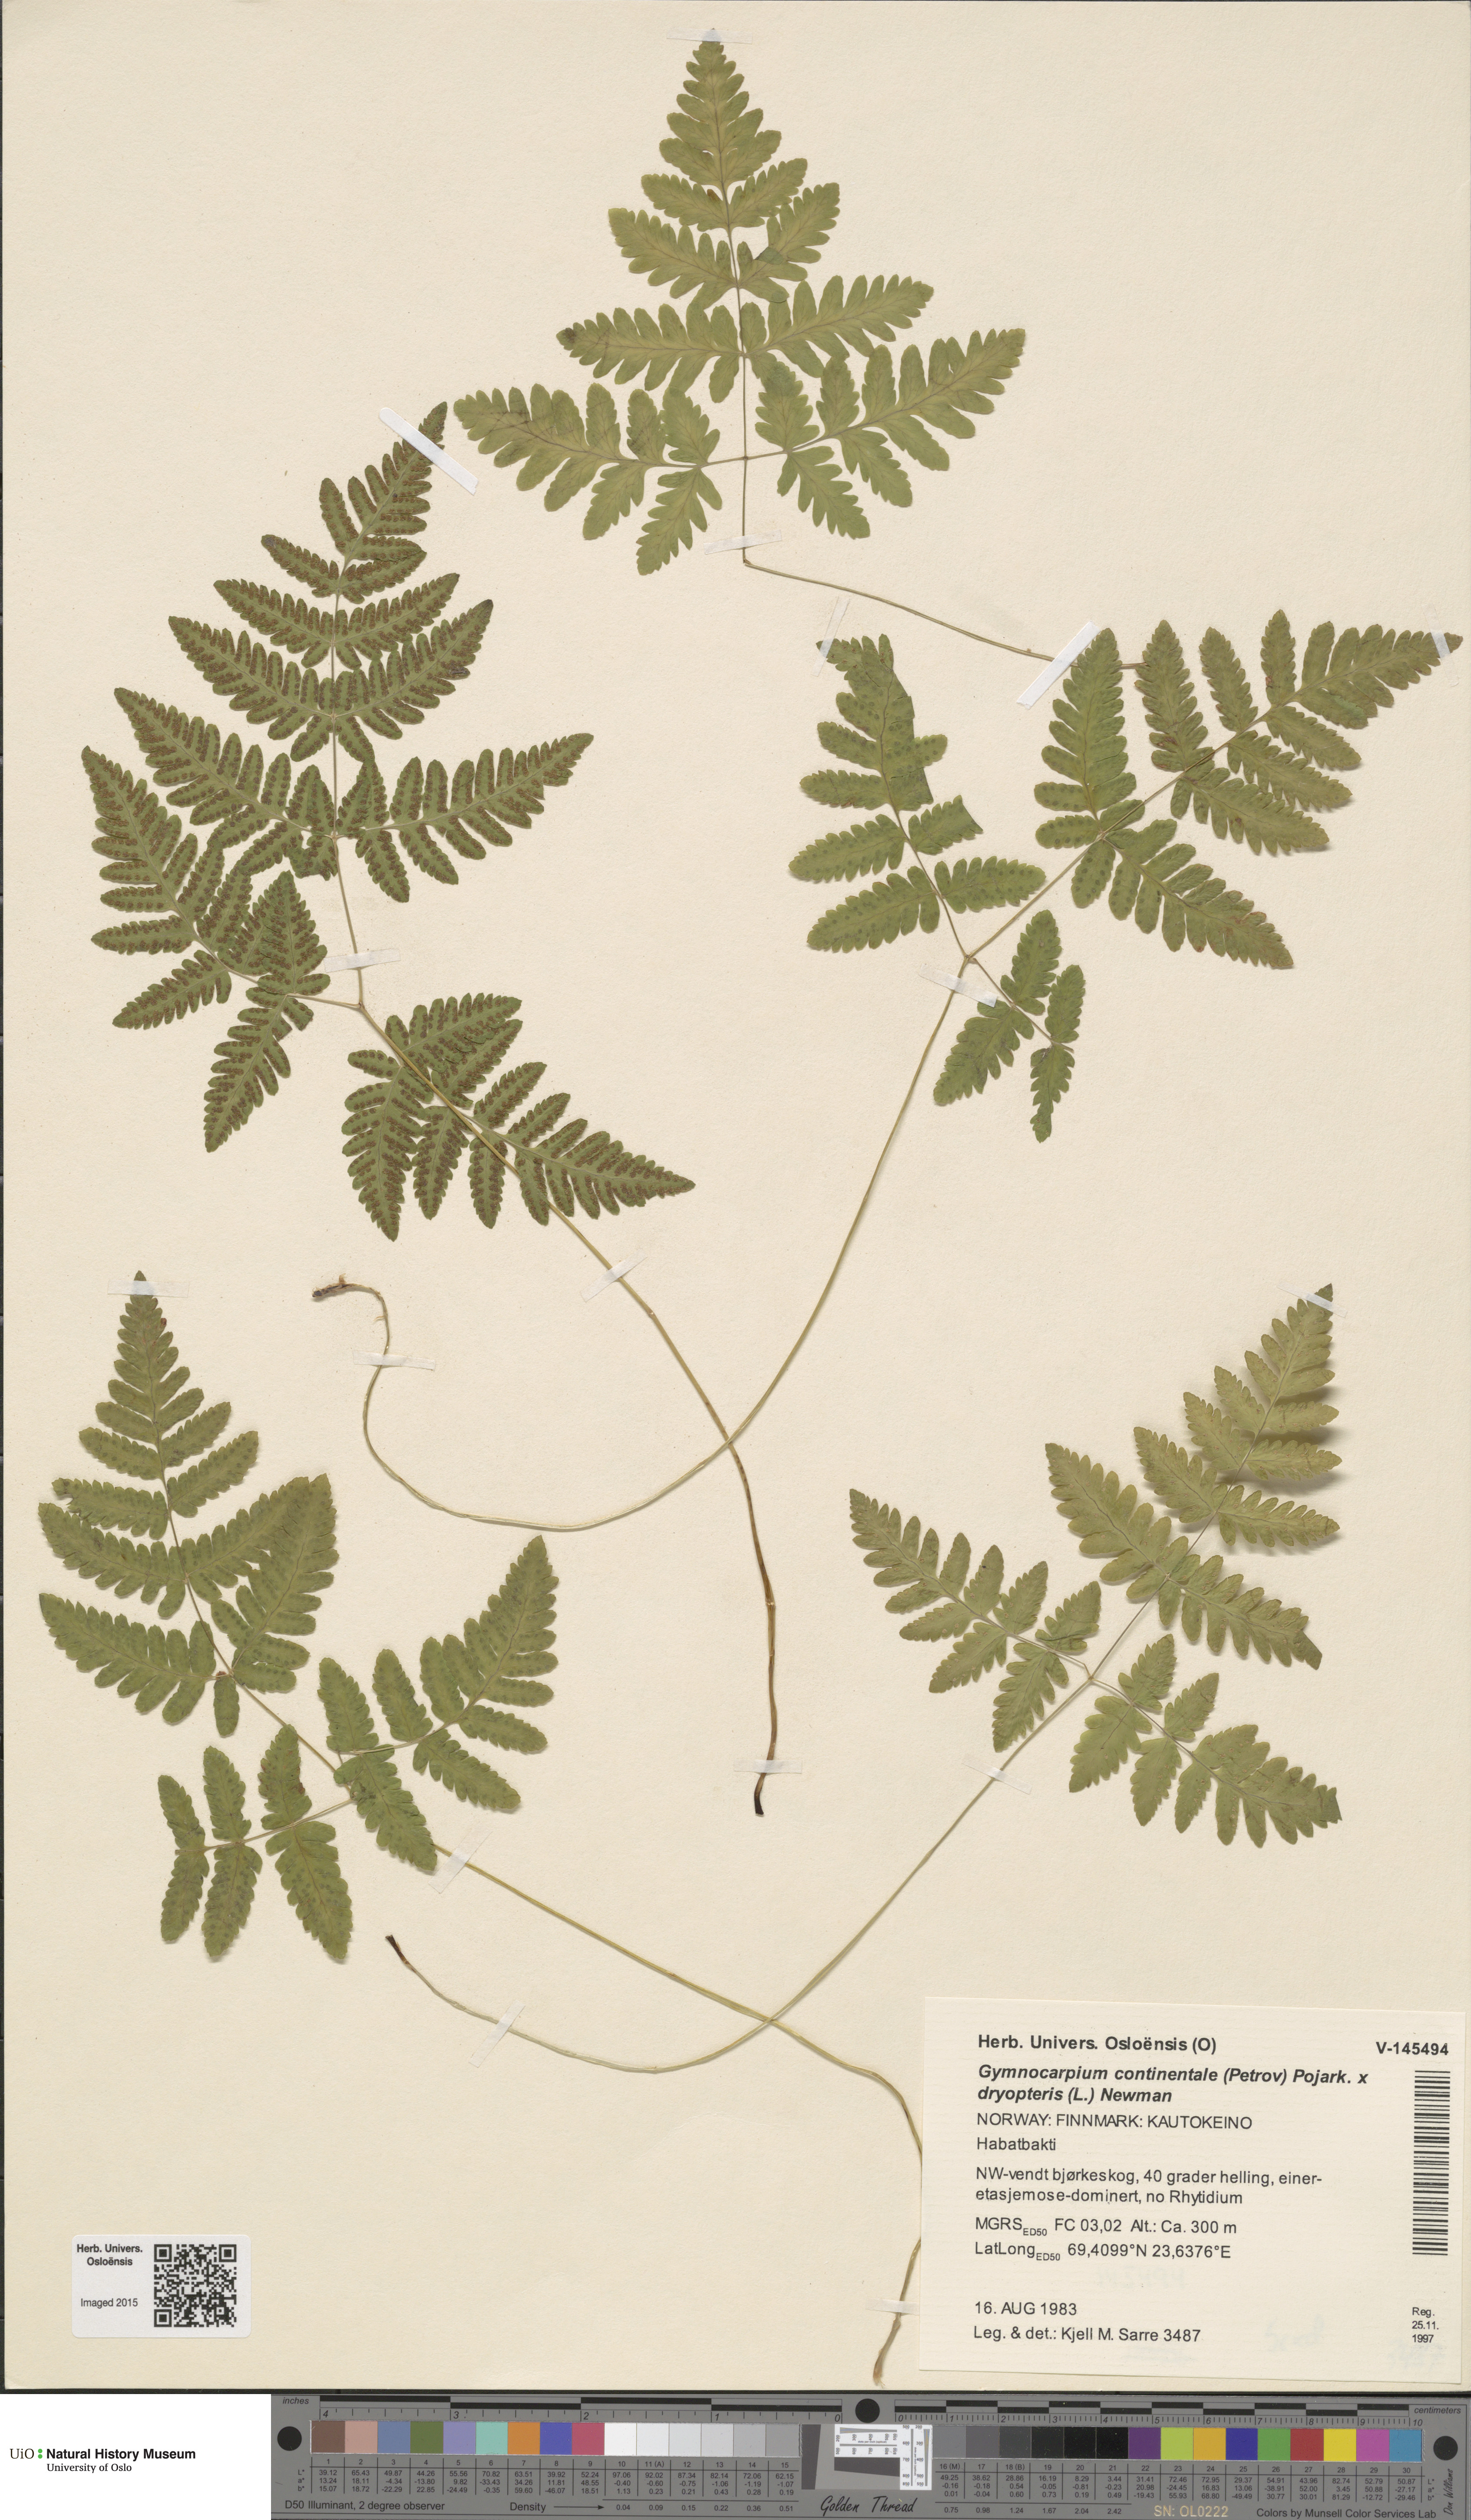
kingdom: Plantae
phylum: Tracheophyta
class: Polypodiopsida
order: Polypodiales
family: Cystopteridaceae
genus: Gymnocarpium
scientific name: Gymnocarpium
